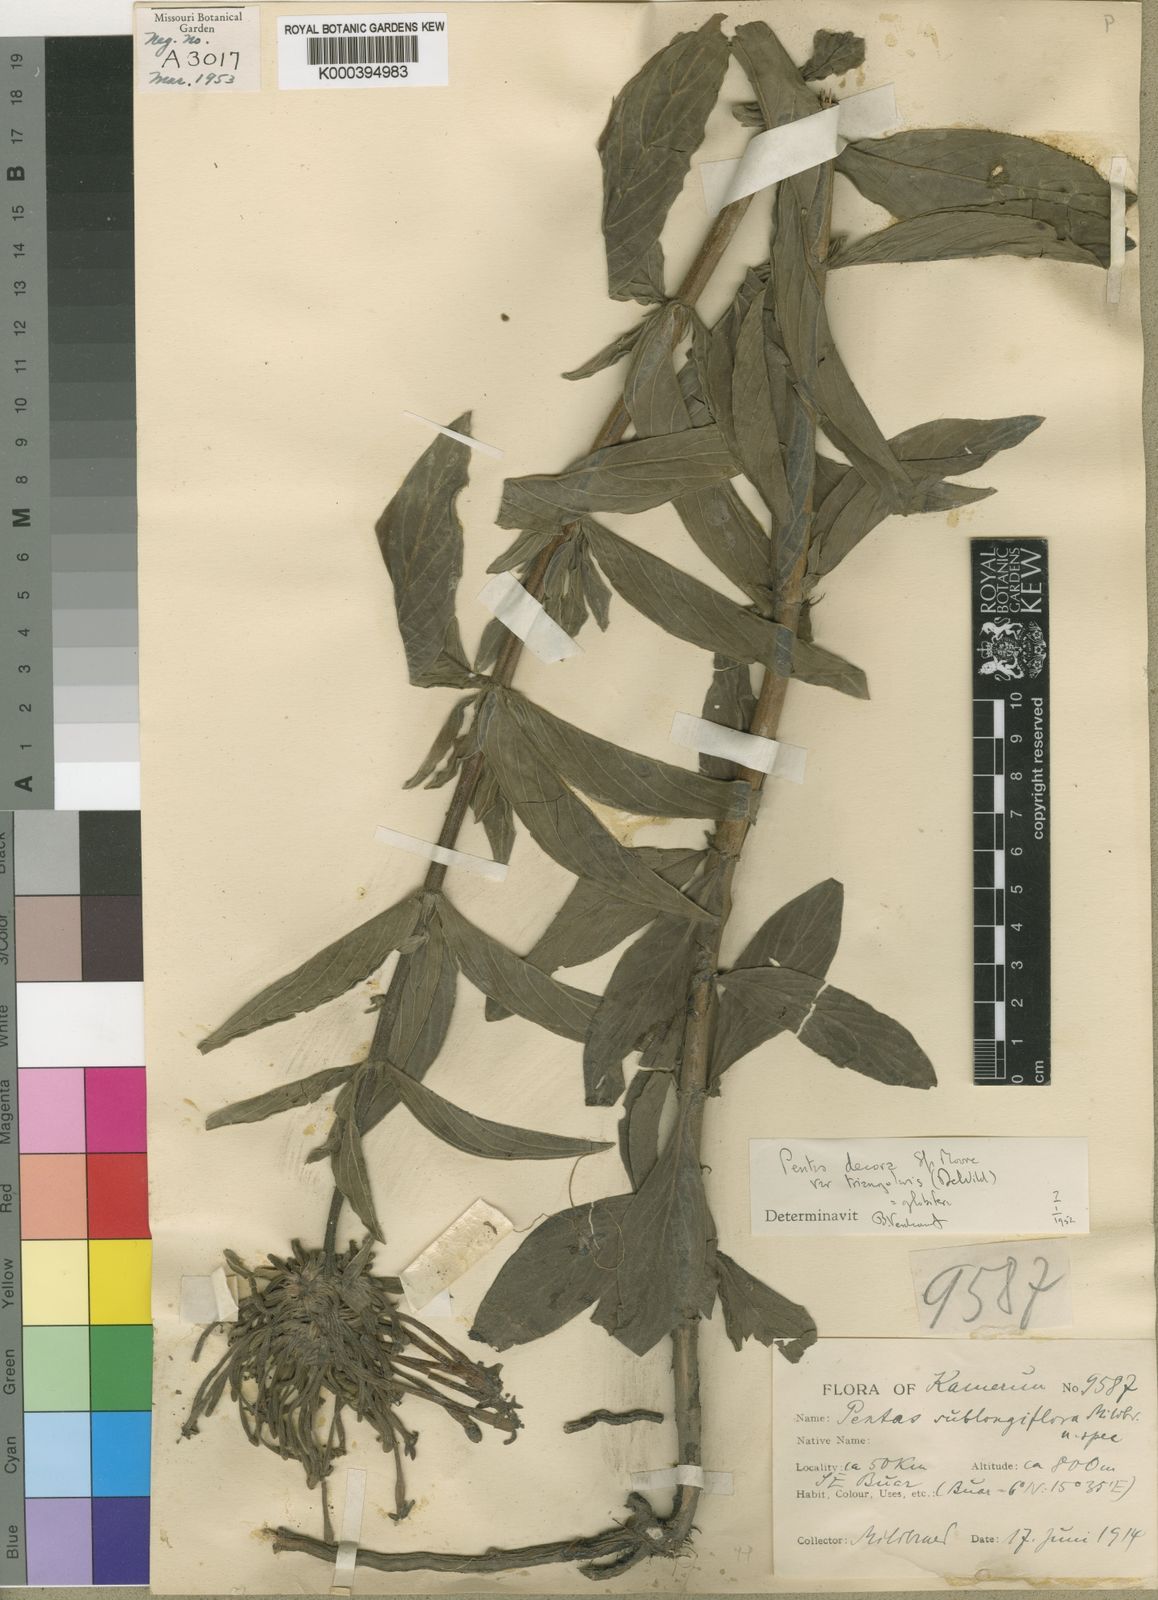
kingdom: Plantae
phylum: Tracheophyta
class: Magnoliopsida
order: Gentianales
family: Rubiaceae
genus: Dolichopentas
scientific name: Dolichopentas
